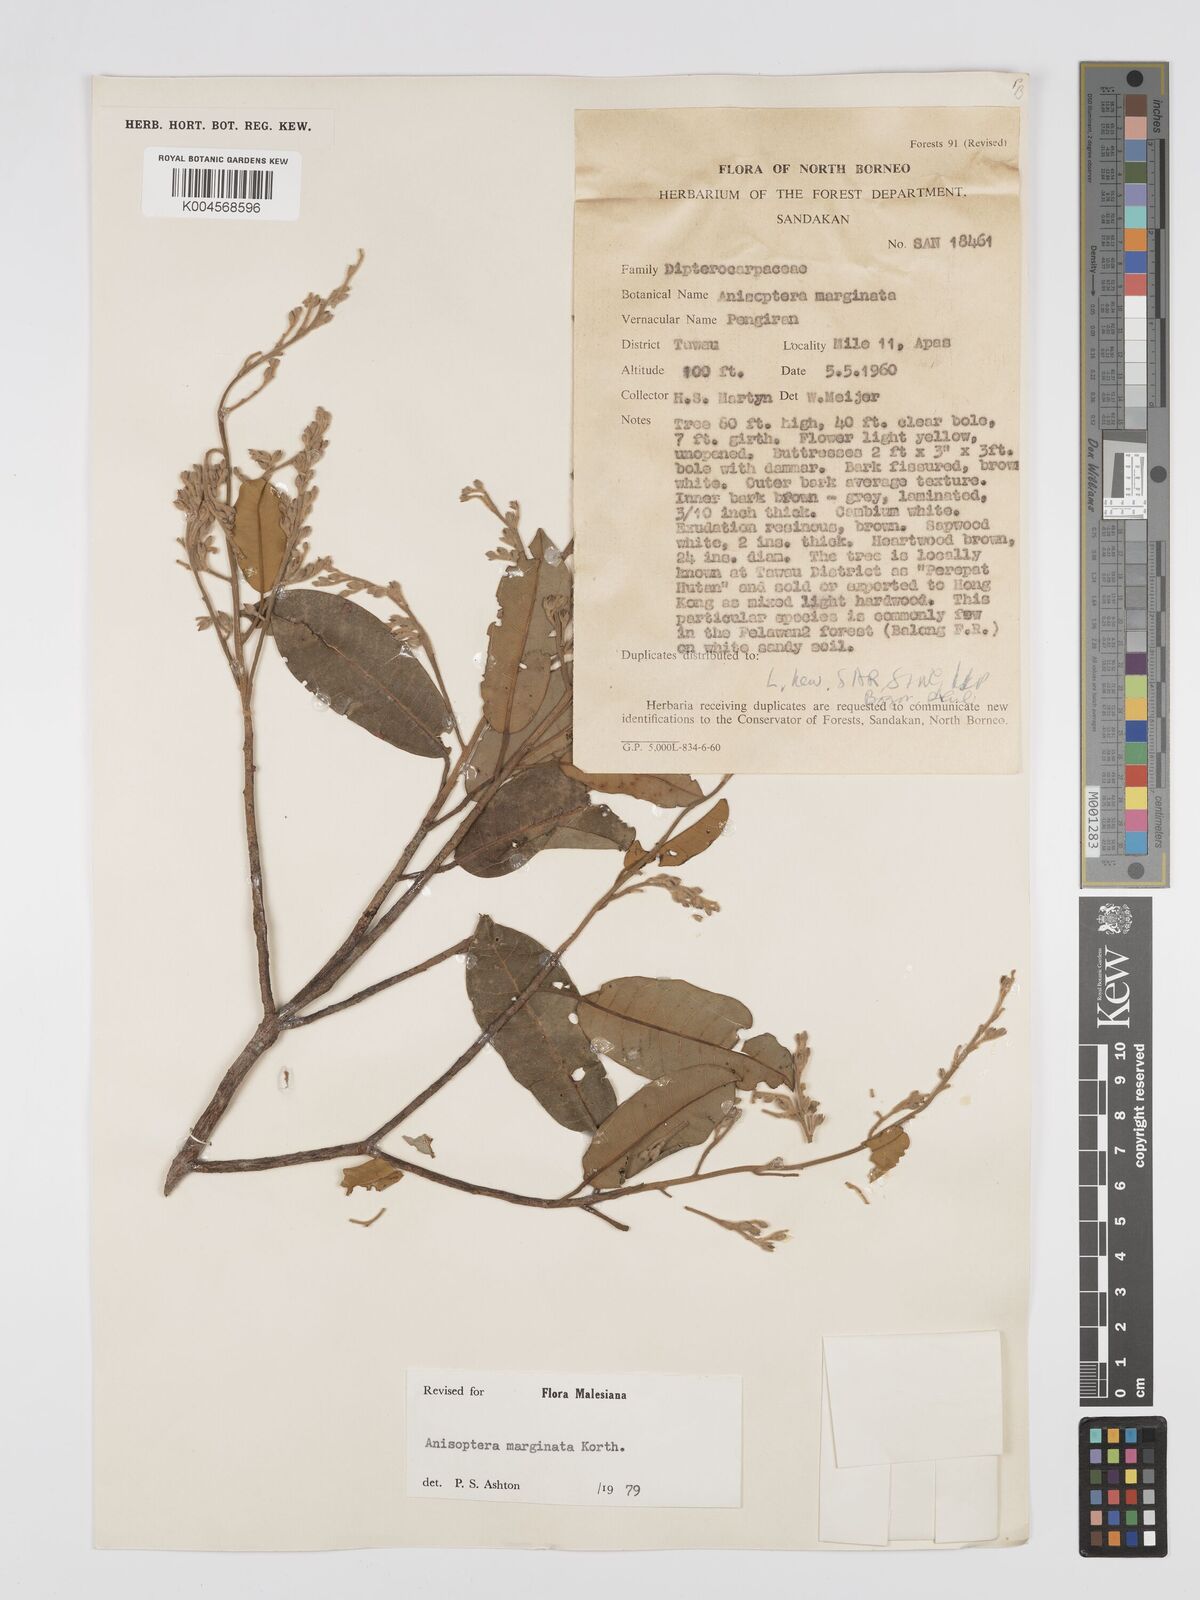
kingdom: Plantae
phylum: Tracheophyta
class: Magnoliopsida
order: Malvales
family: Dipterocarpaceae
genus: Anisoptera
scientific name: Anisoptera marginata
